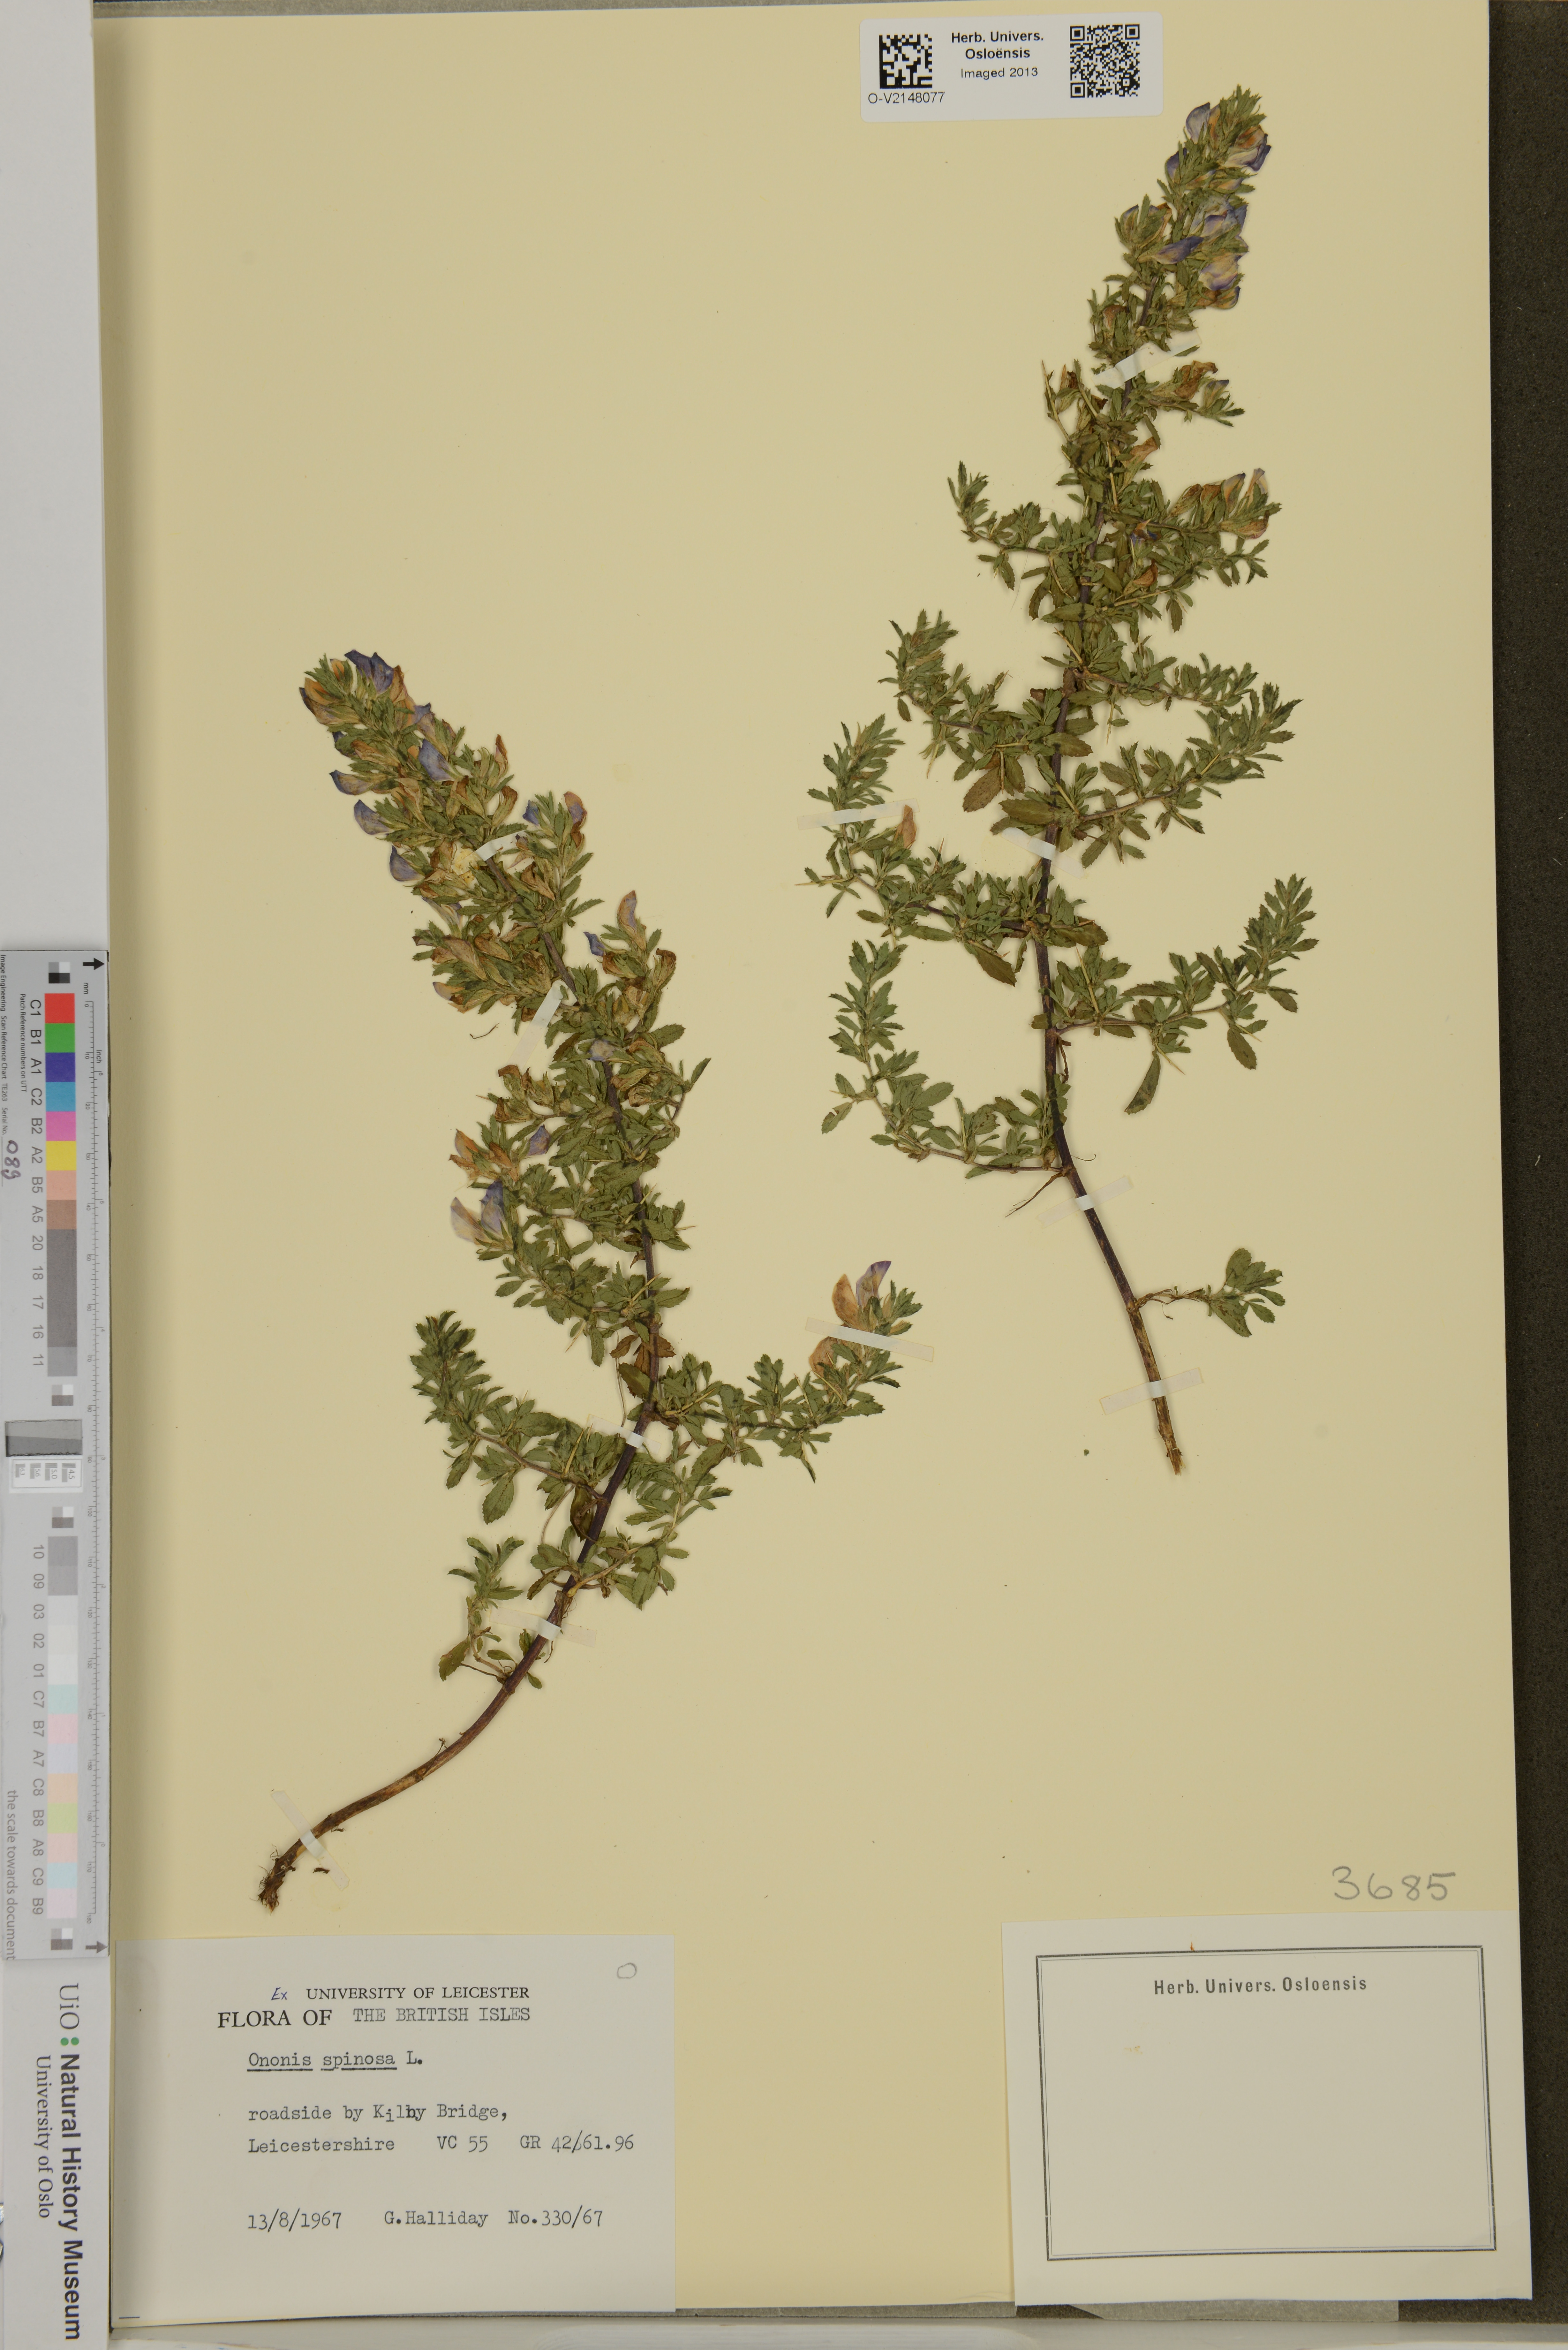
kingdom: Plantae
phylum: Tracheophyta
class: Magnoliopsida
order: Fabales
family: Fabaceae
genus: Ononis
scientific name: Ononis spinosa
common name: Spiny restharrow
